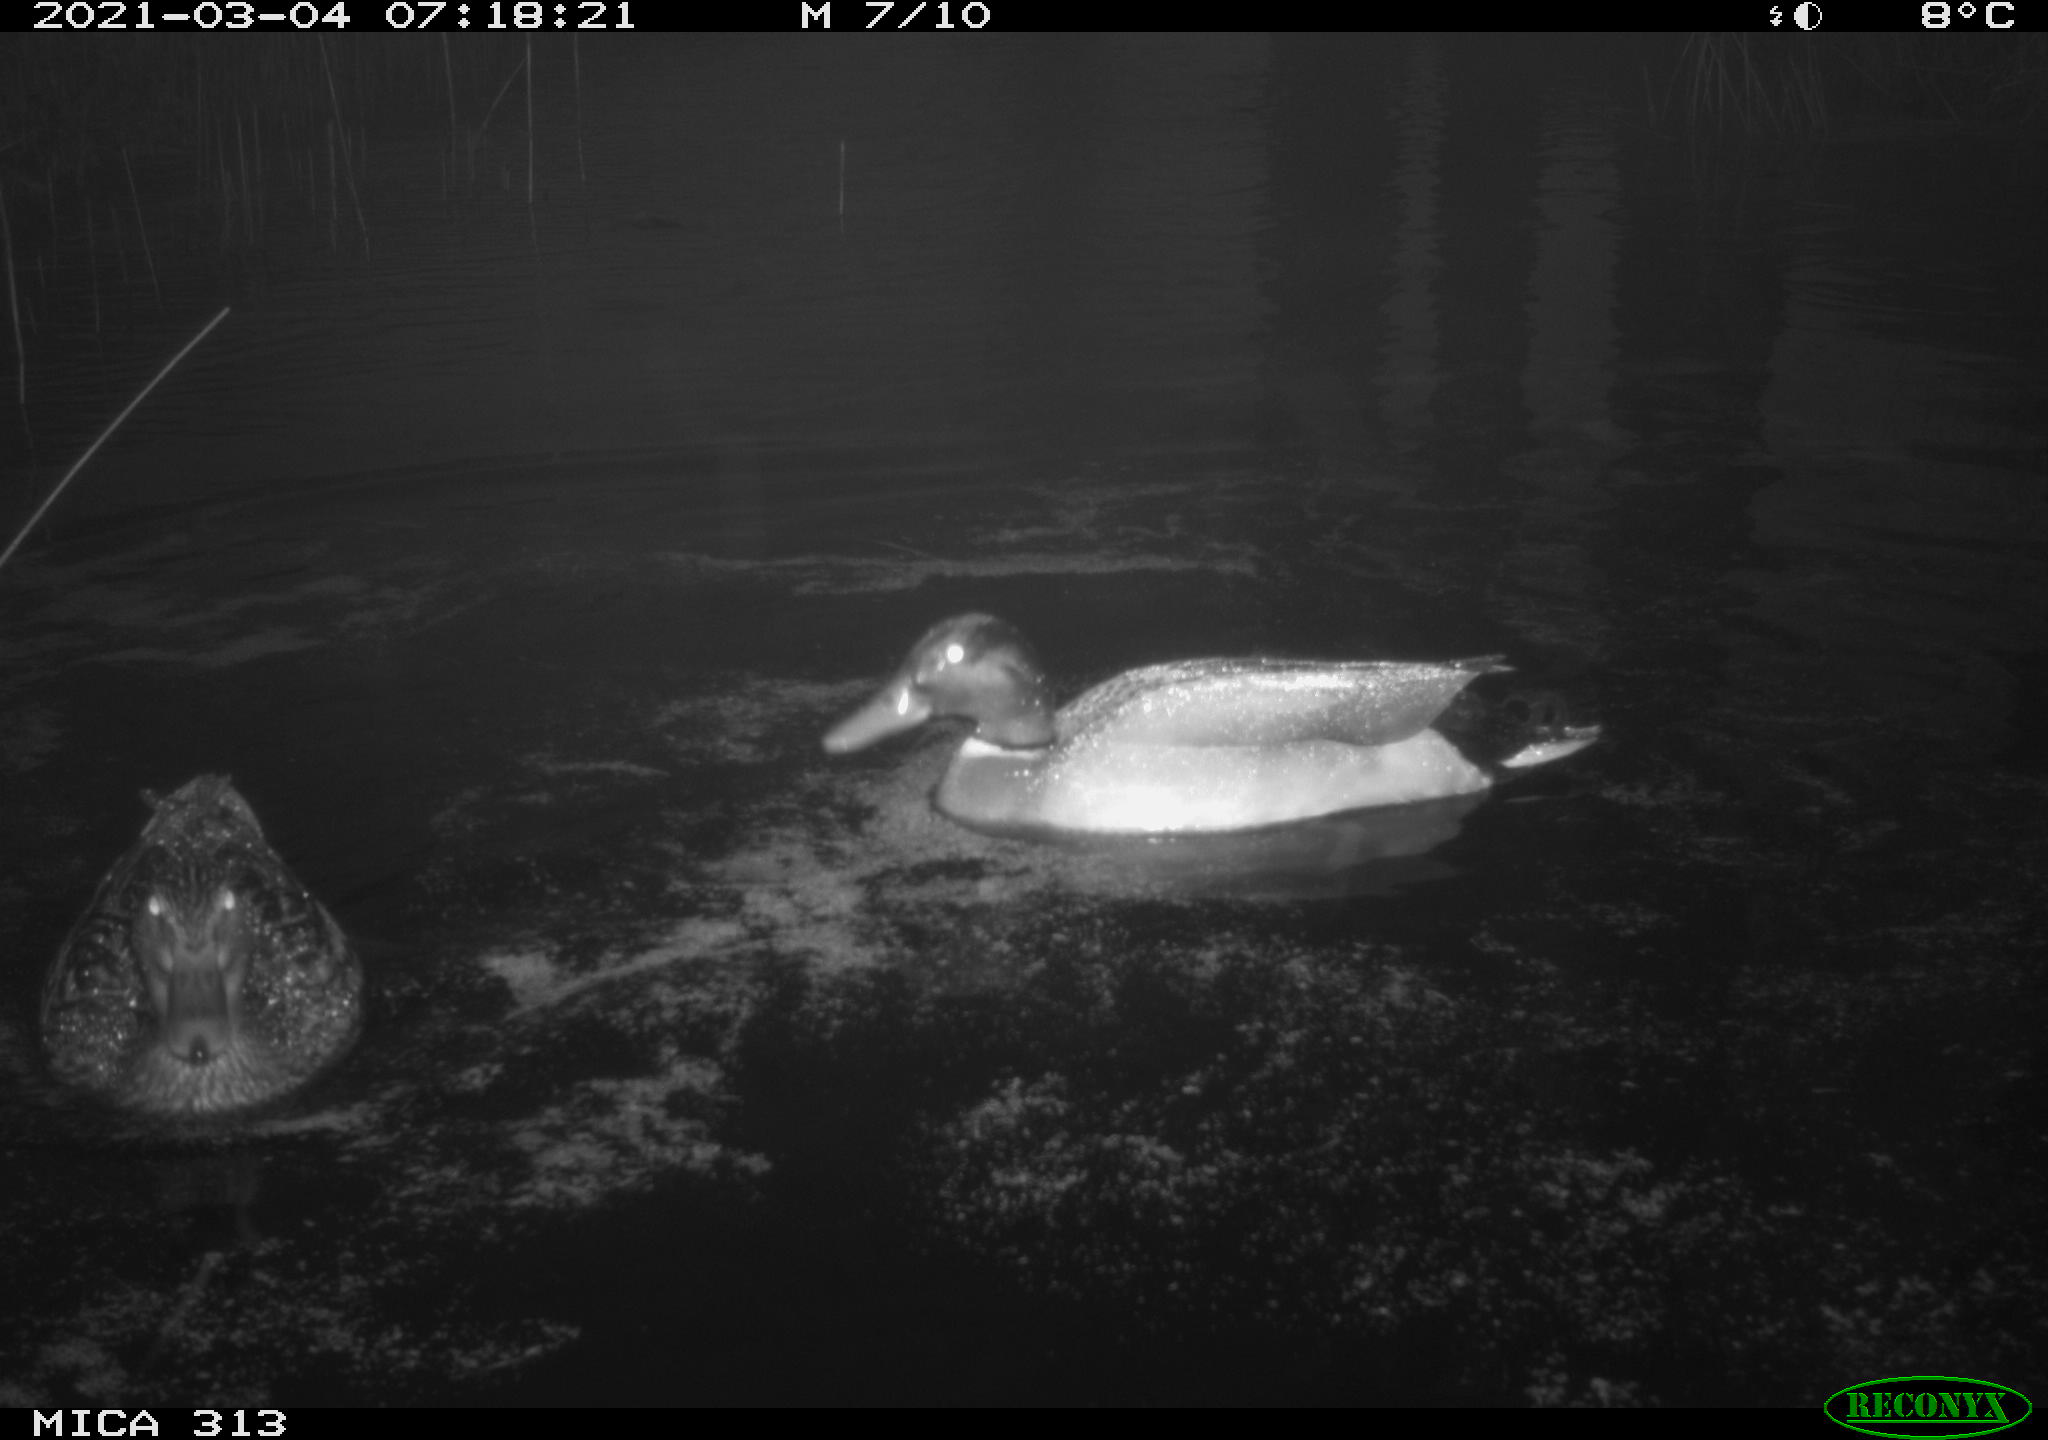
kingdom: Animalia
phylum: Chordata
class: Aves
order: Anseriformes
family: Anatidae
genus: Anas
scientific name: Anas platyrhynchos
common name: Mallard
